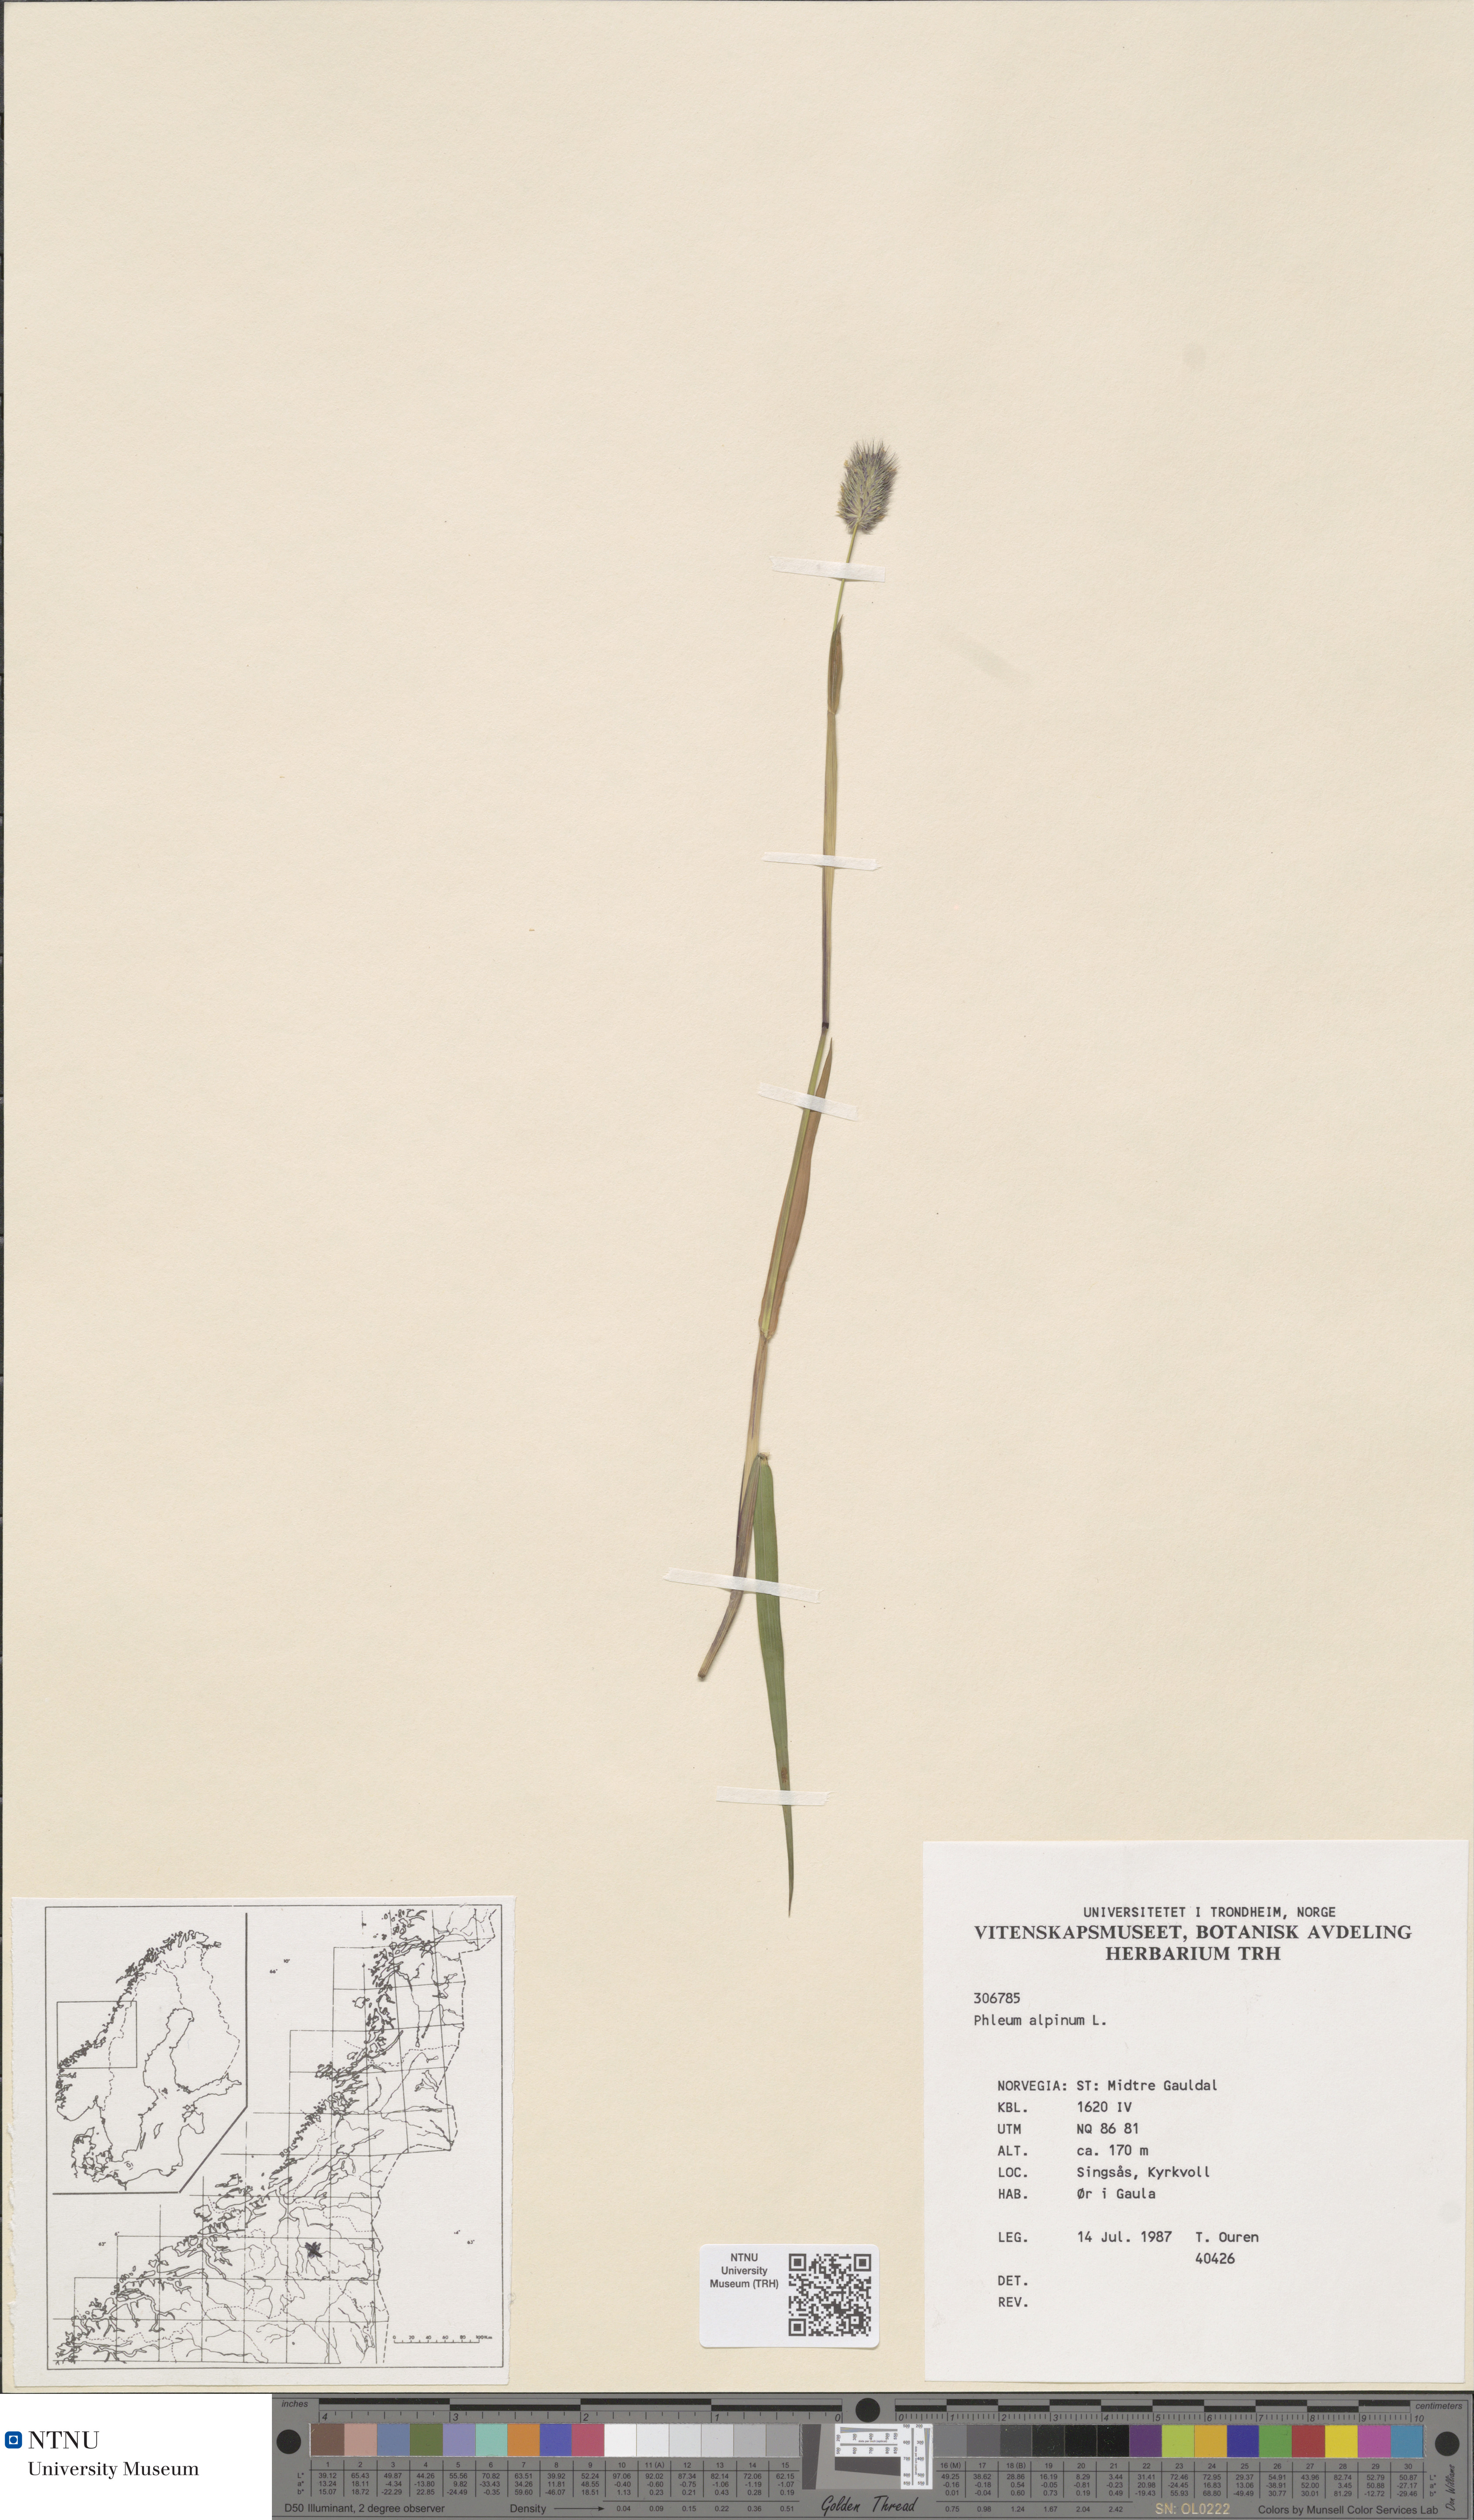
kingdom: Plantae
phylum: Tracheophyta
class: Liliopsida
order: Poales
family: Poaceae
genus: Phleum
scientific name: Phleum alpinum
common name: Alpine cat's-tail
